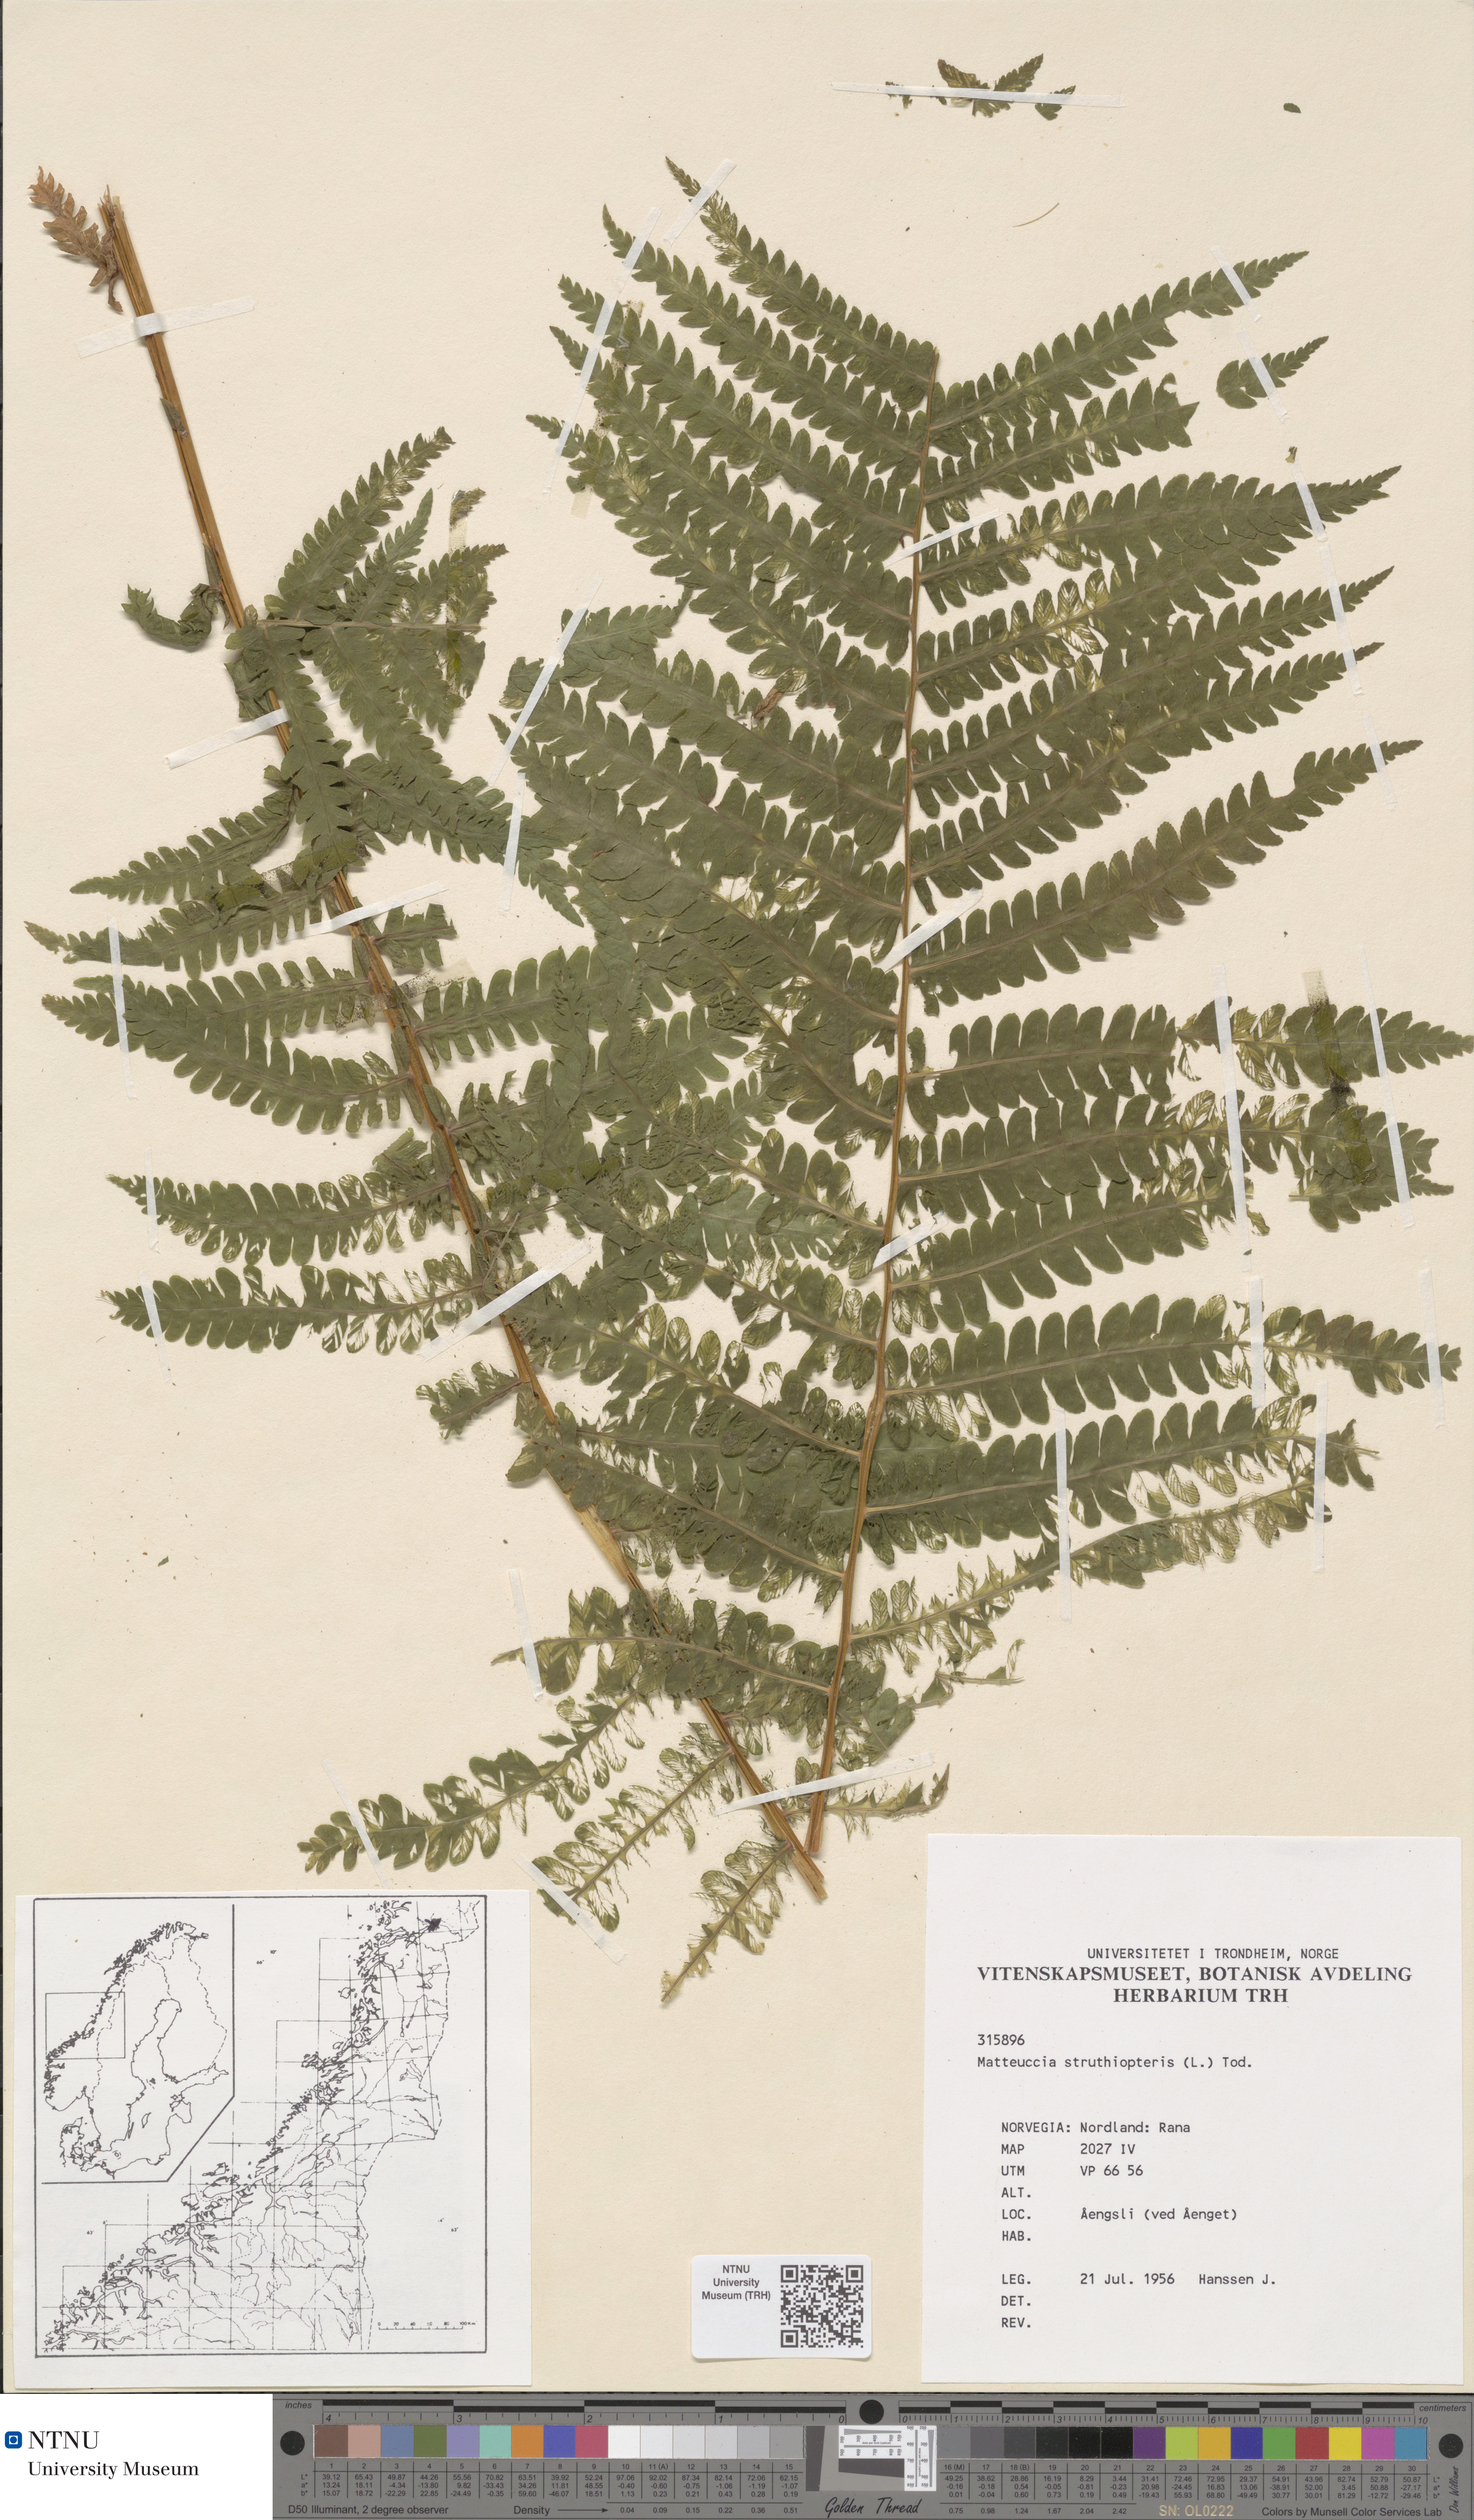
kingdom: Plantae
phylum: Tracheophyta
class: Polypodiopsida
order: Polypodiales
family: Onocleaceae
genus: Matteuccia
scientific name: Matteuccia struthiopteris
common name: Ostrich fern
